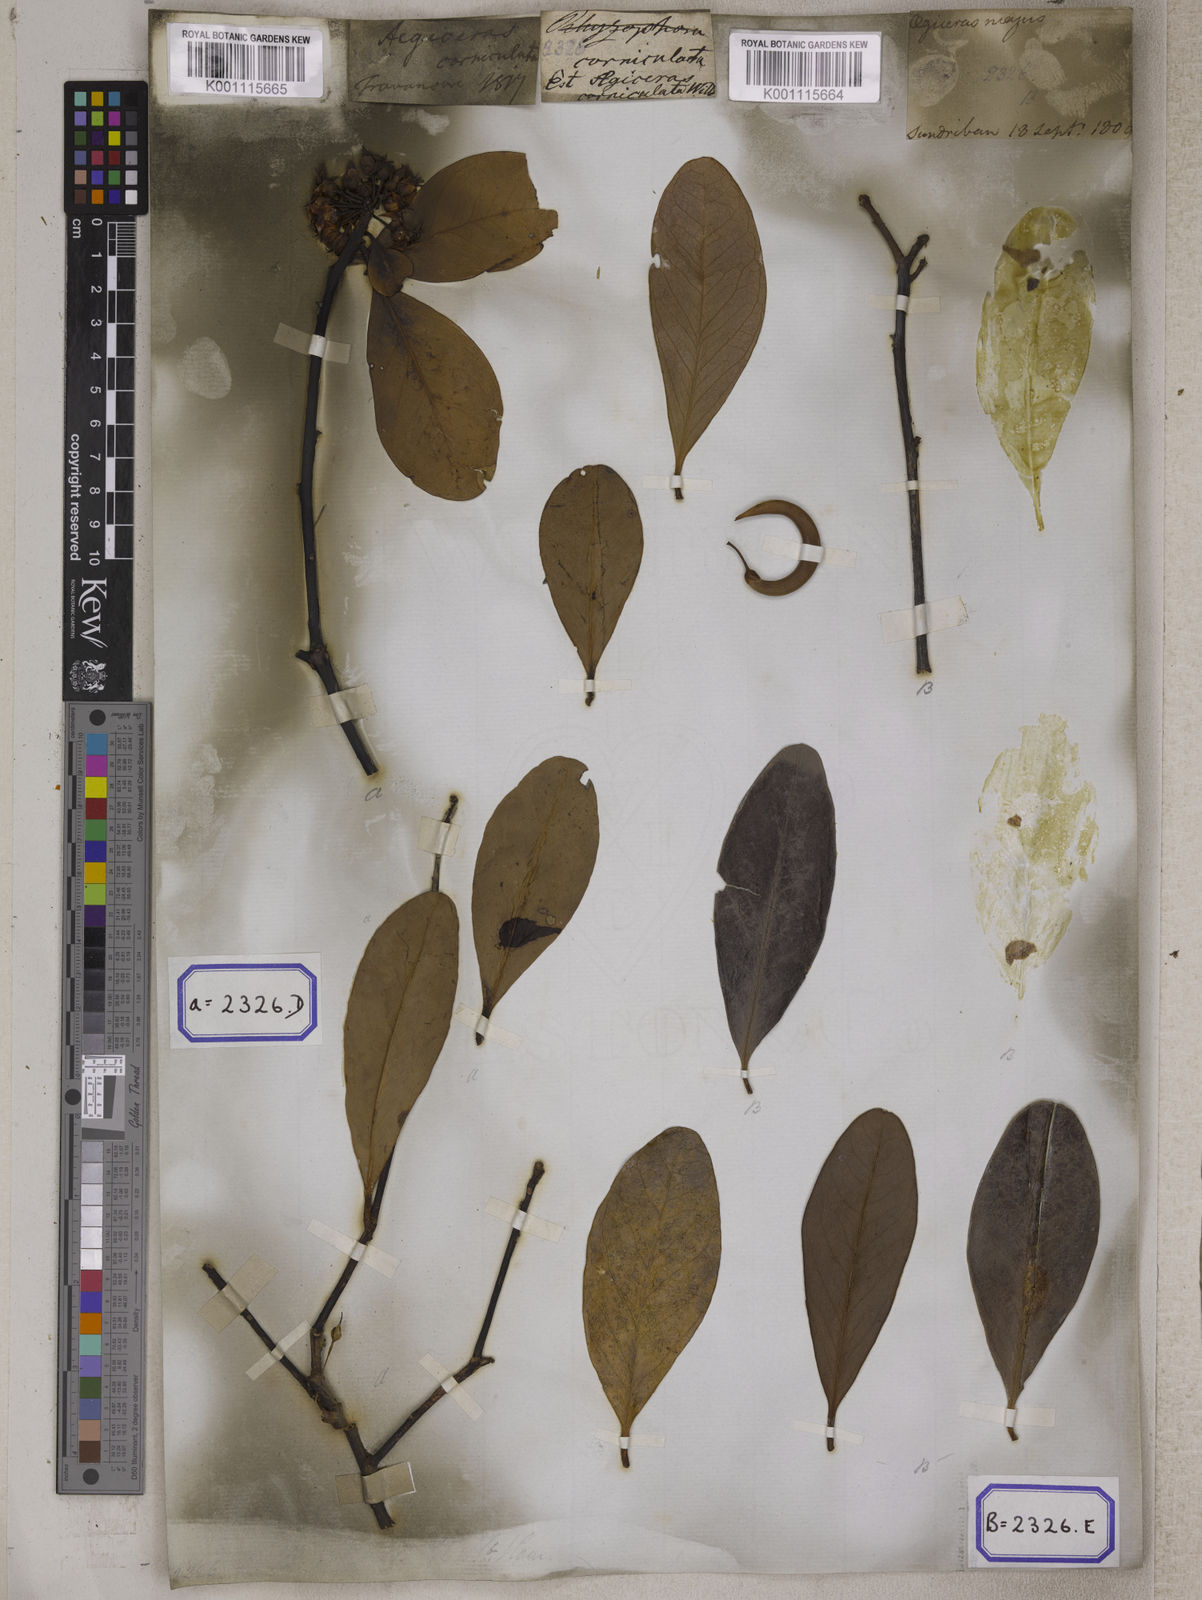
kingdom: Plantae
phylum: Tracheophyta
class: Magnoliopsida
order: Ericales
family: Primulaceae
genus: Aegiceras
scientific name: Aegiceras corniculatum
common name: River mangrove
